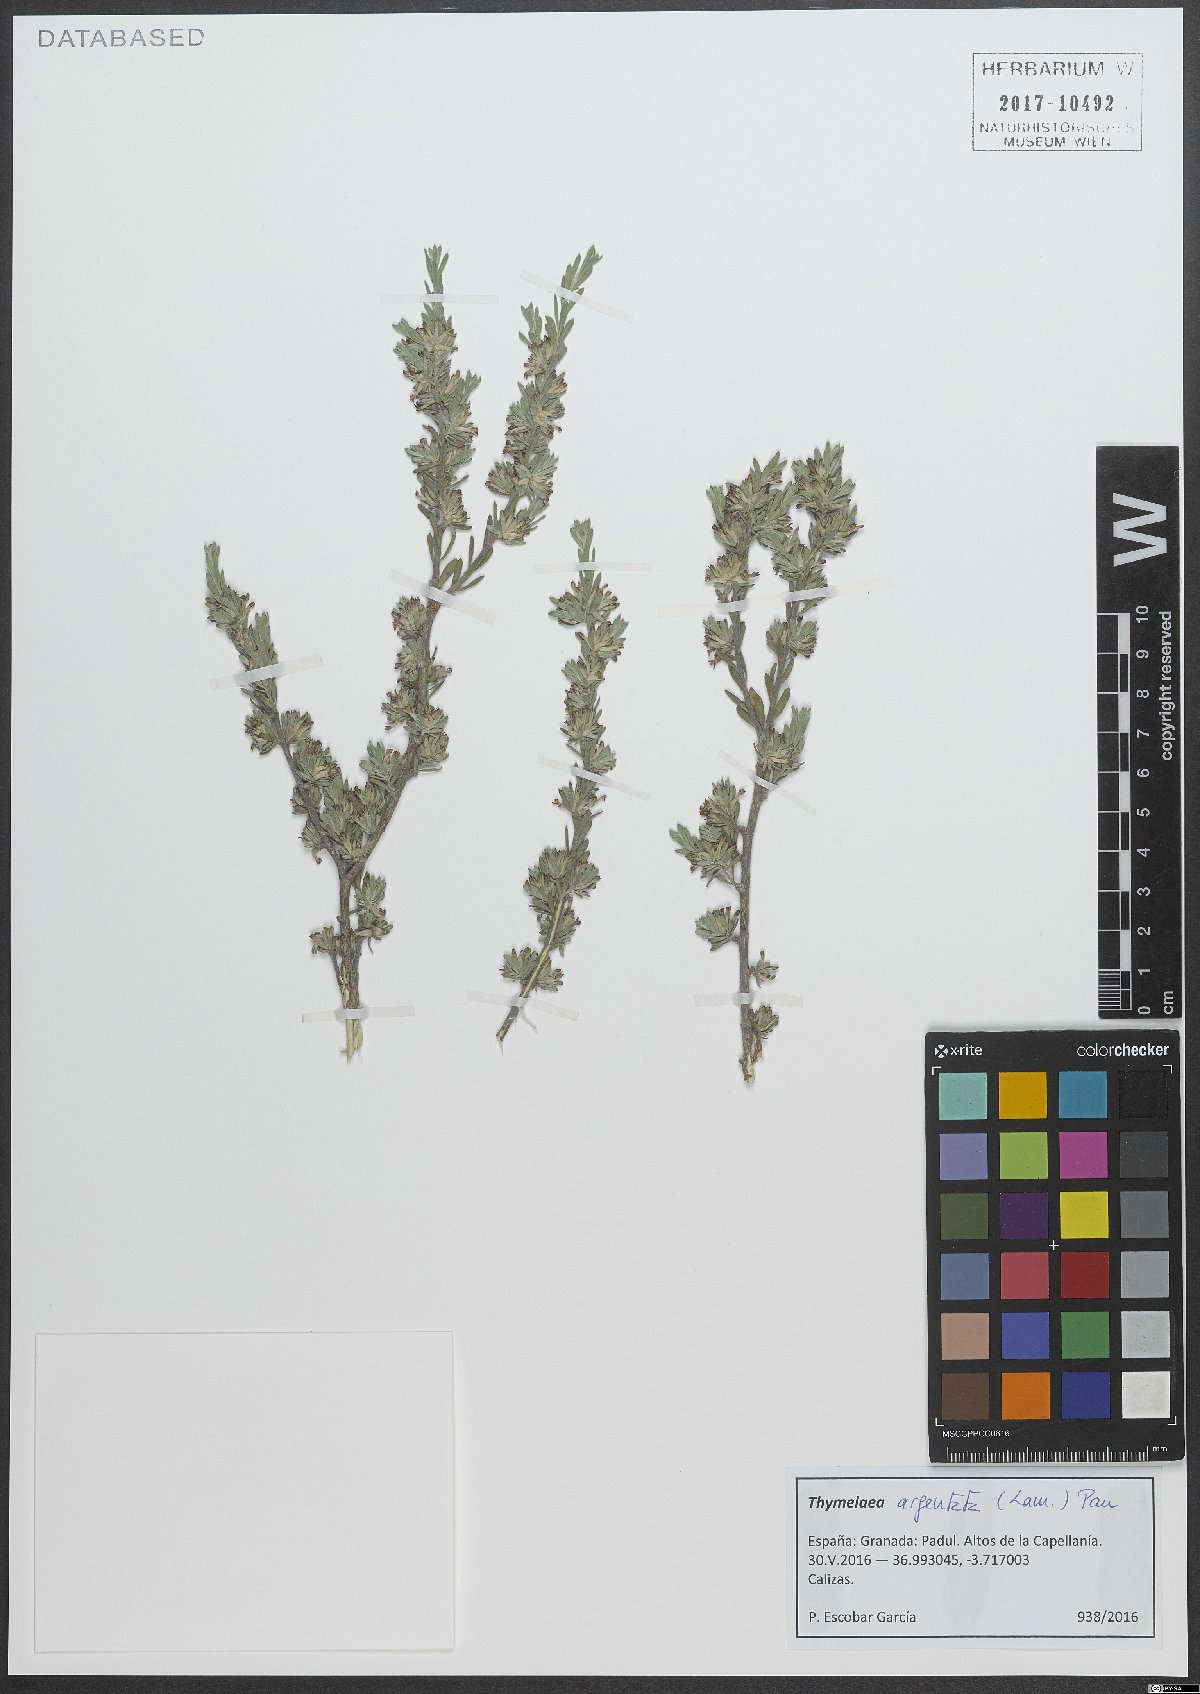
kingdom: Plantae
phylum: Tracheophyta
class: Magnoliopsida
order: Malvales
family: Thymelaeaceae
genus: Thymelaea
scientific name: Thymelaea argentata
